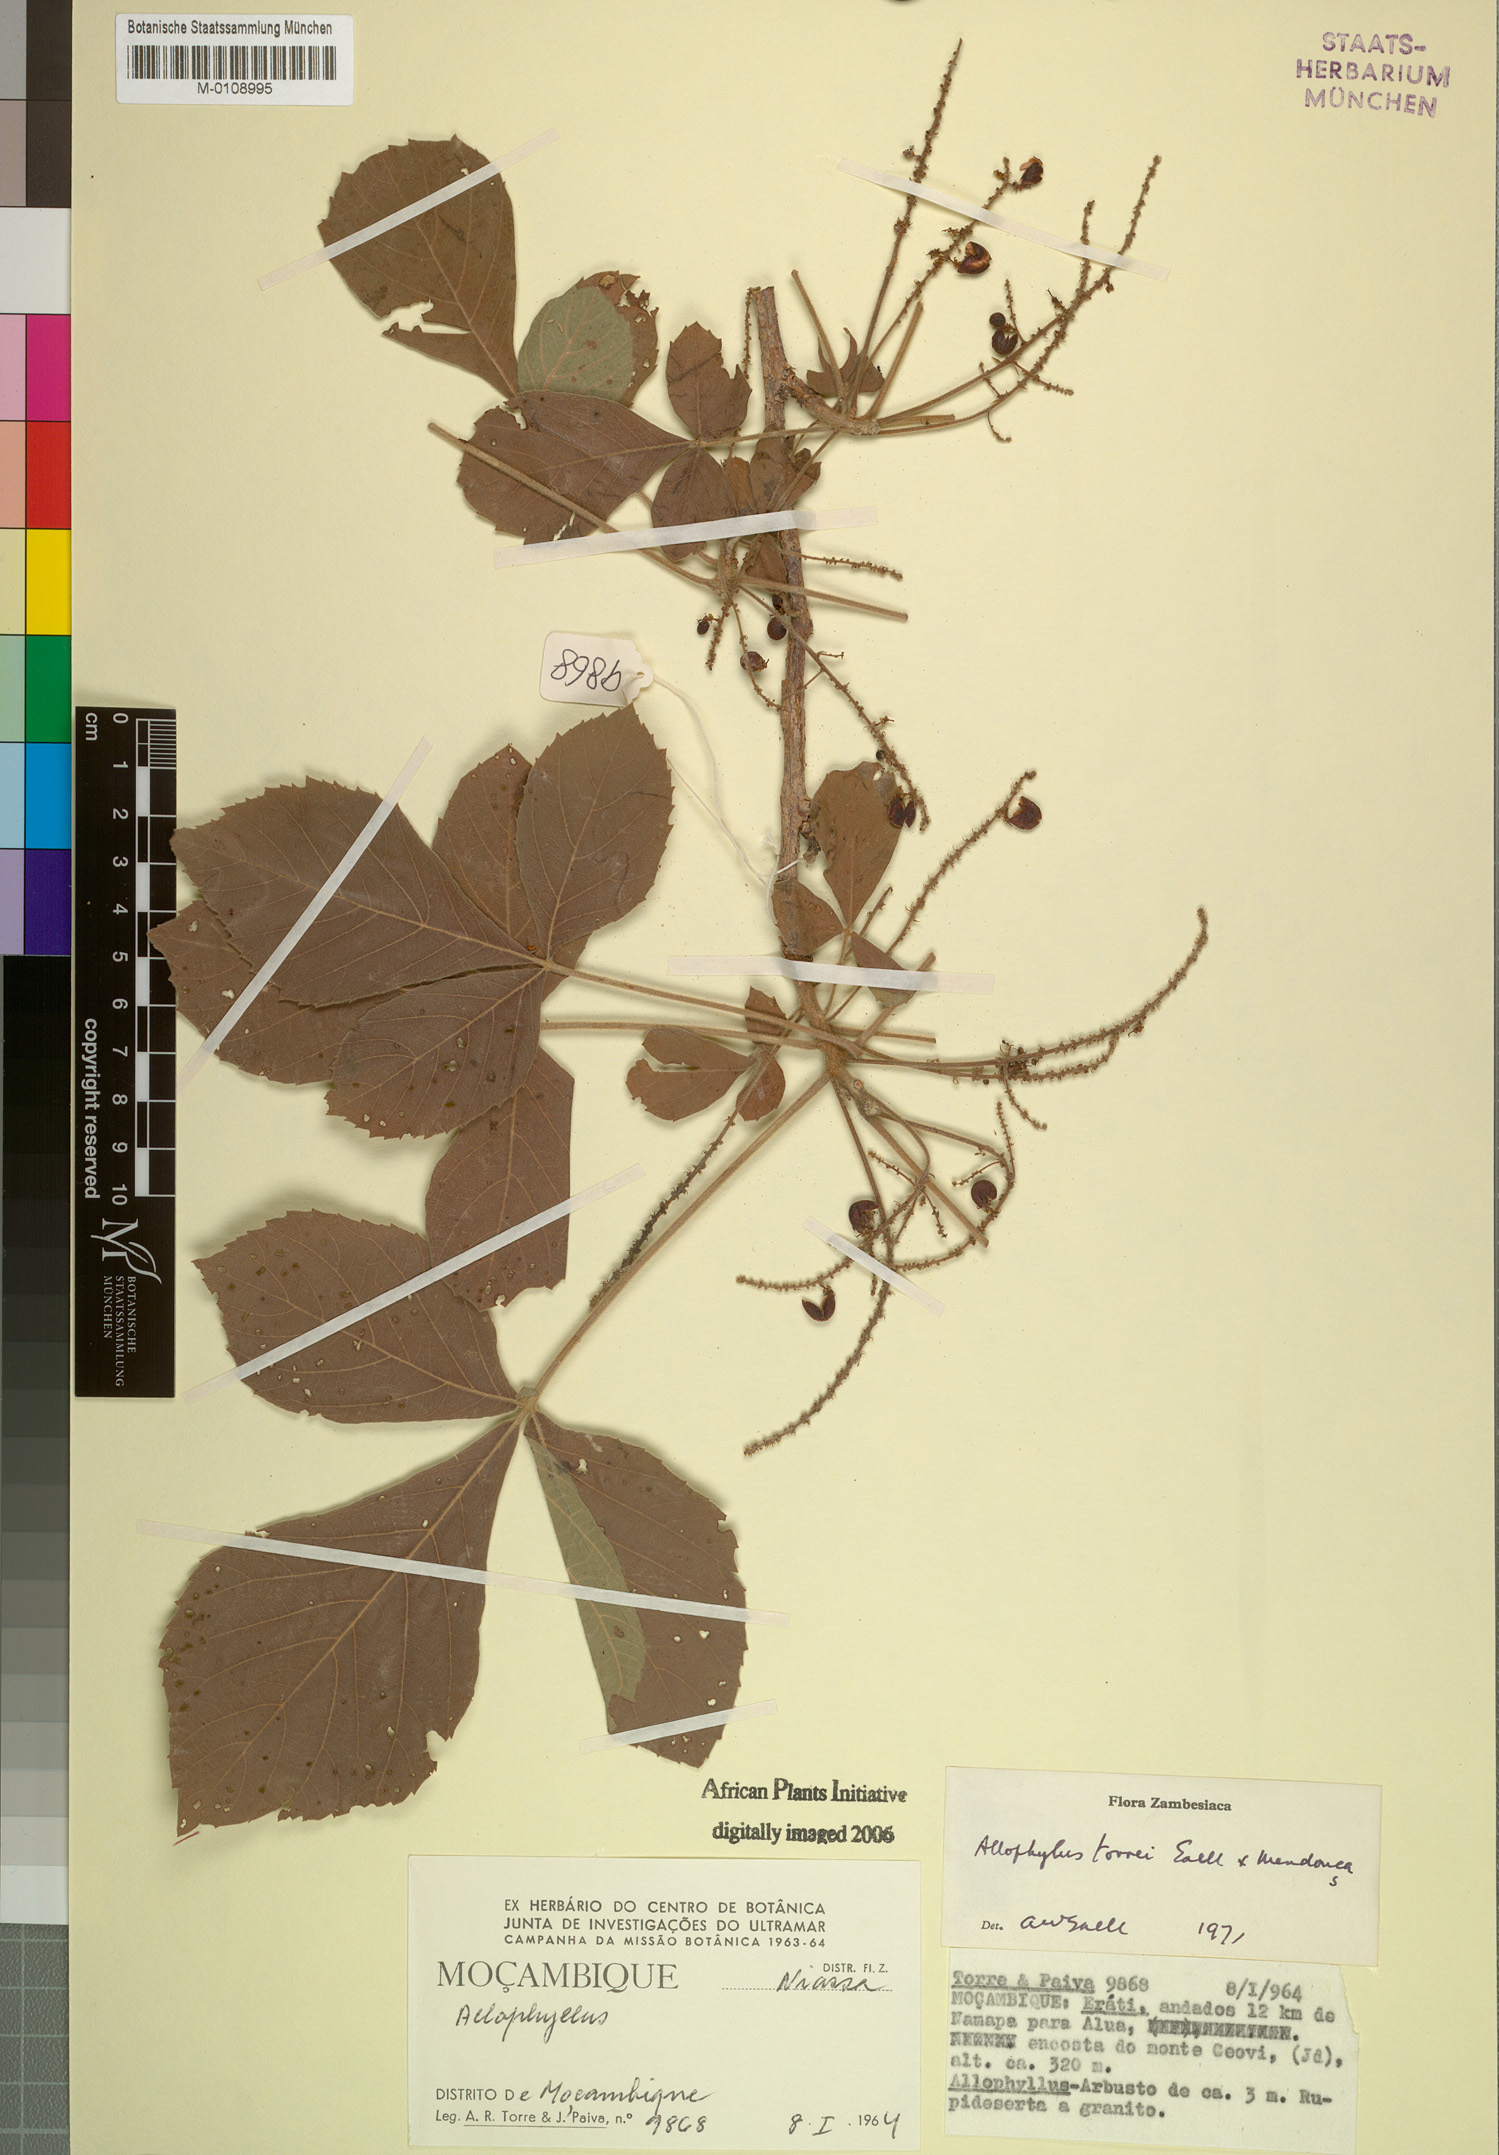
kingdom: Plantae
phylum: Tracheophyta
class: Magnoliopsida
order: Sapindales
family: Sapindaceae
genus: Allophylus
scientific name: Allophylus torrei
